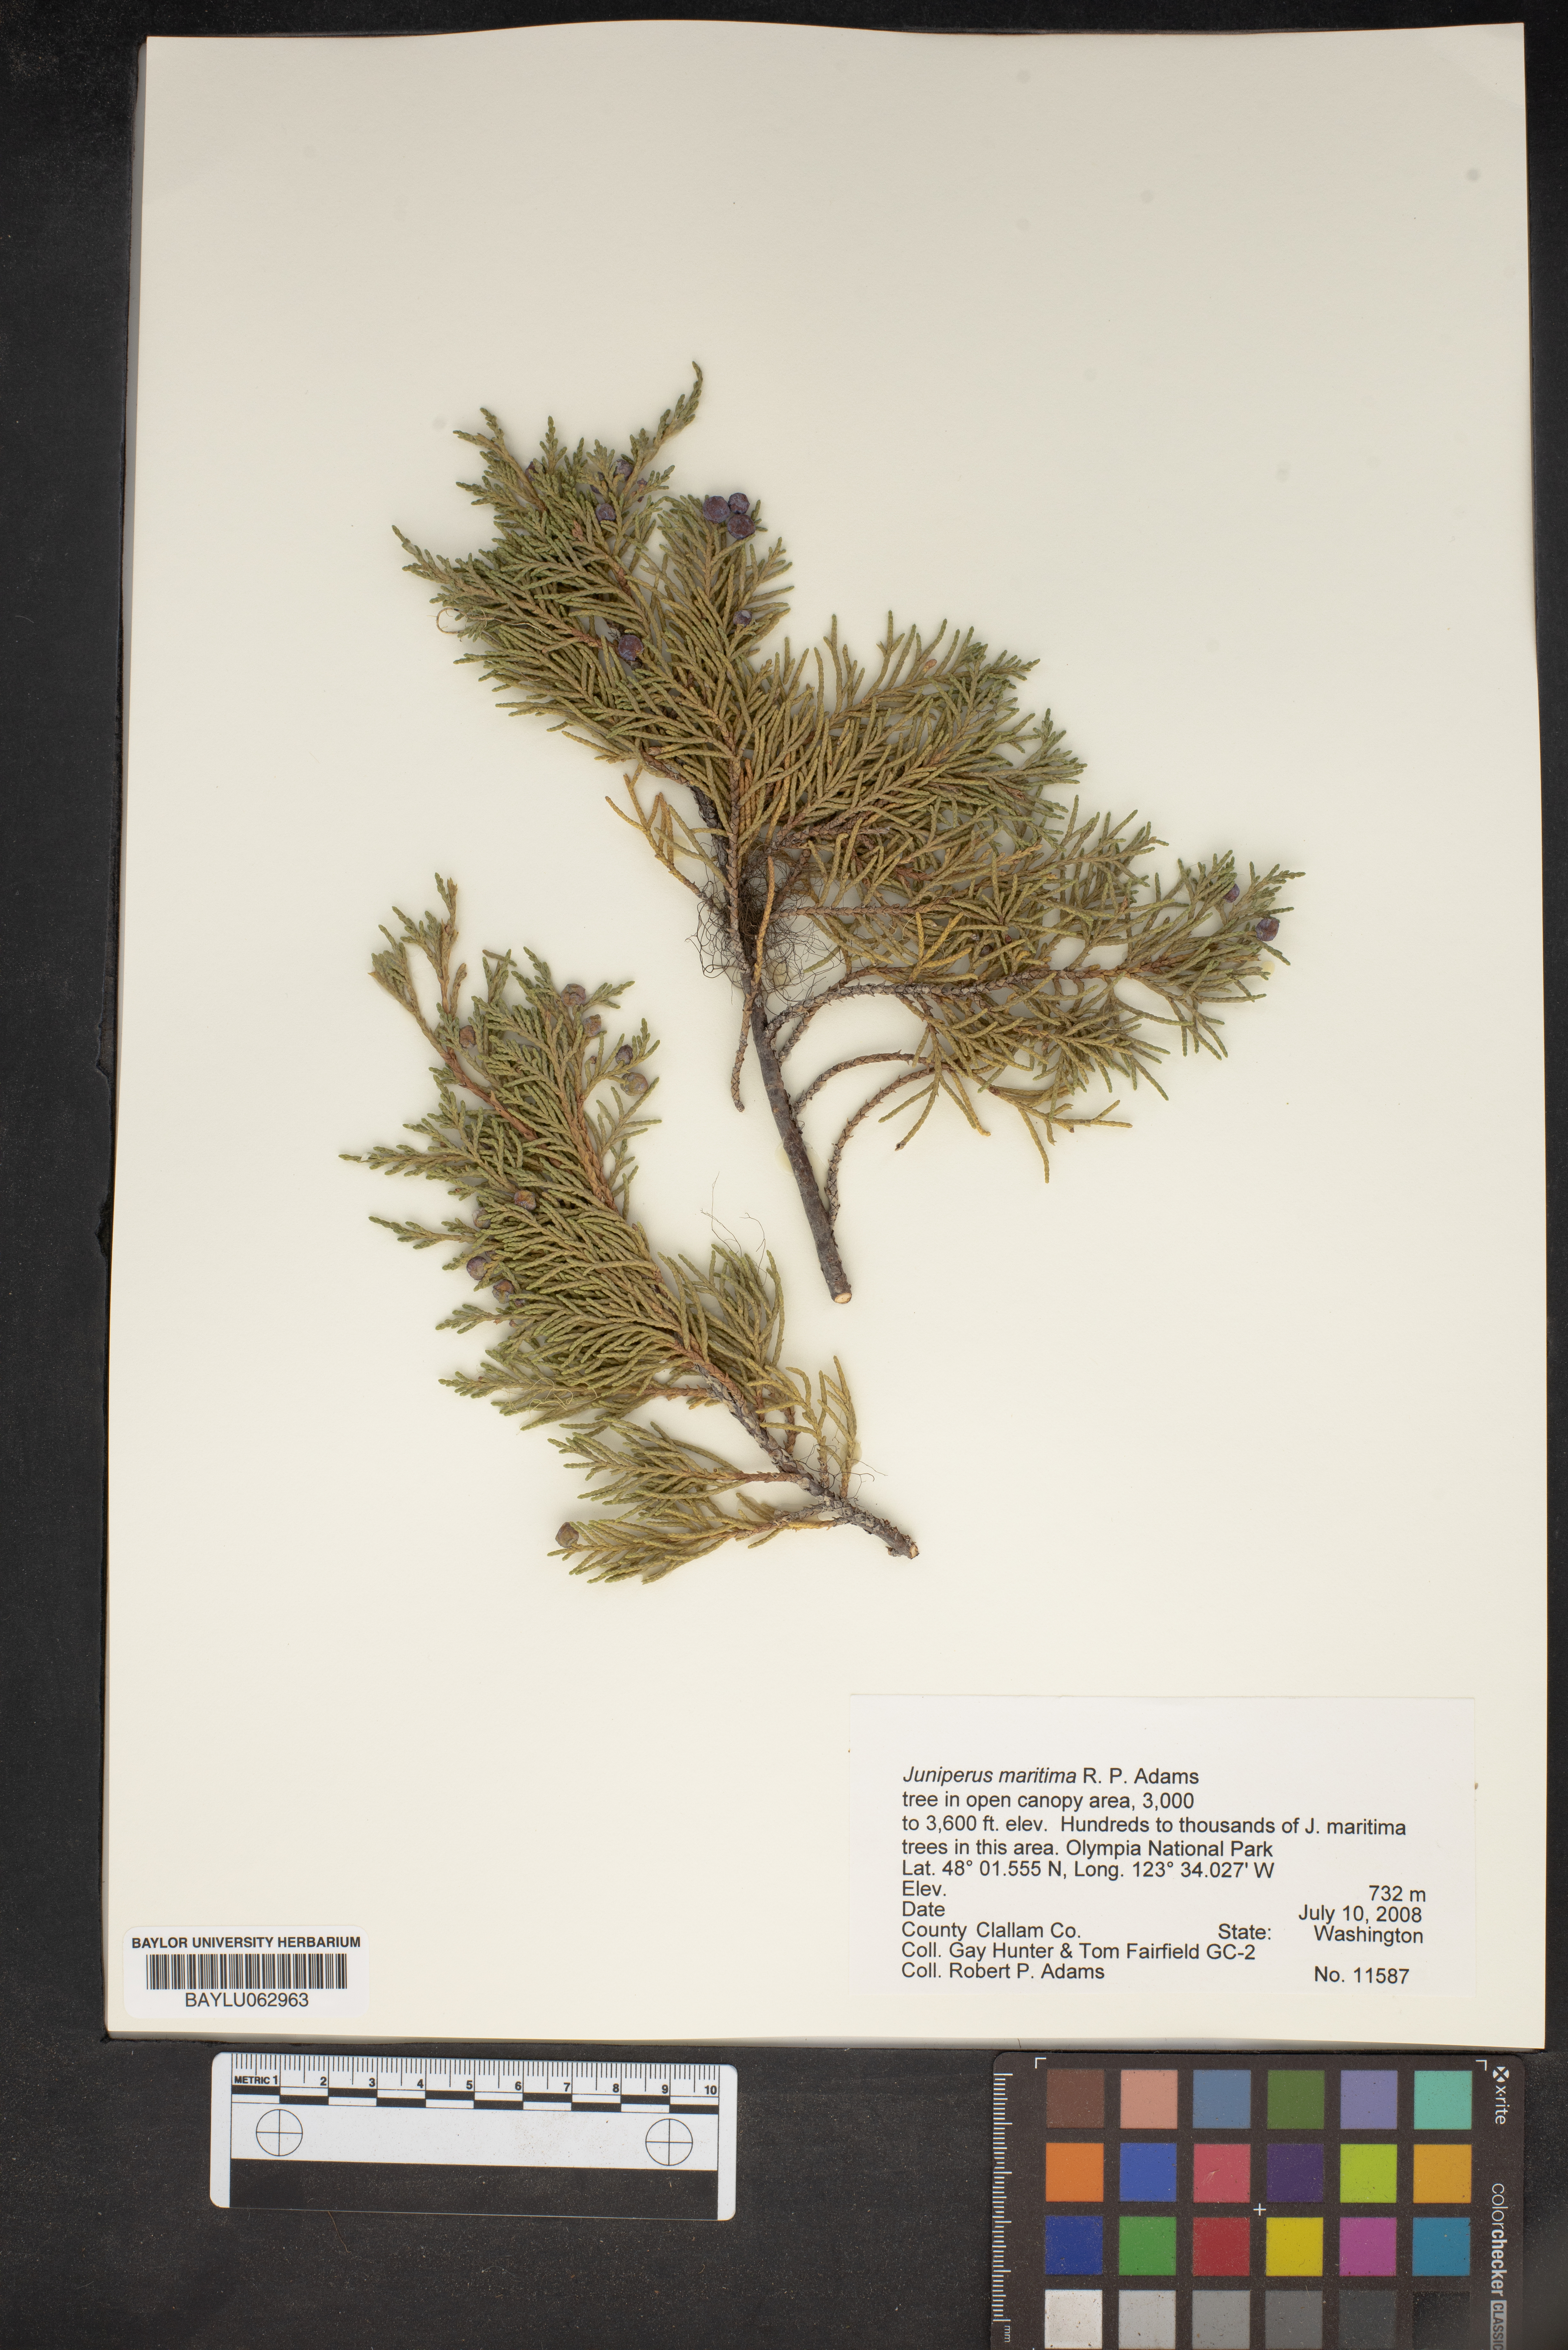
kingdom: Plantae
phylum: Tracheophyta
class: Pinopsida
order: Pinales
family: Cupressaceae
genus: Juniperus
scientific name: Juniperus scopulorum
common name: Rocky mountain juniper
